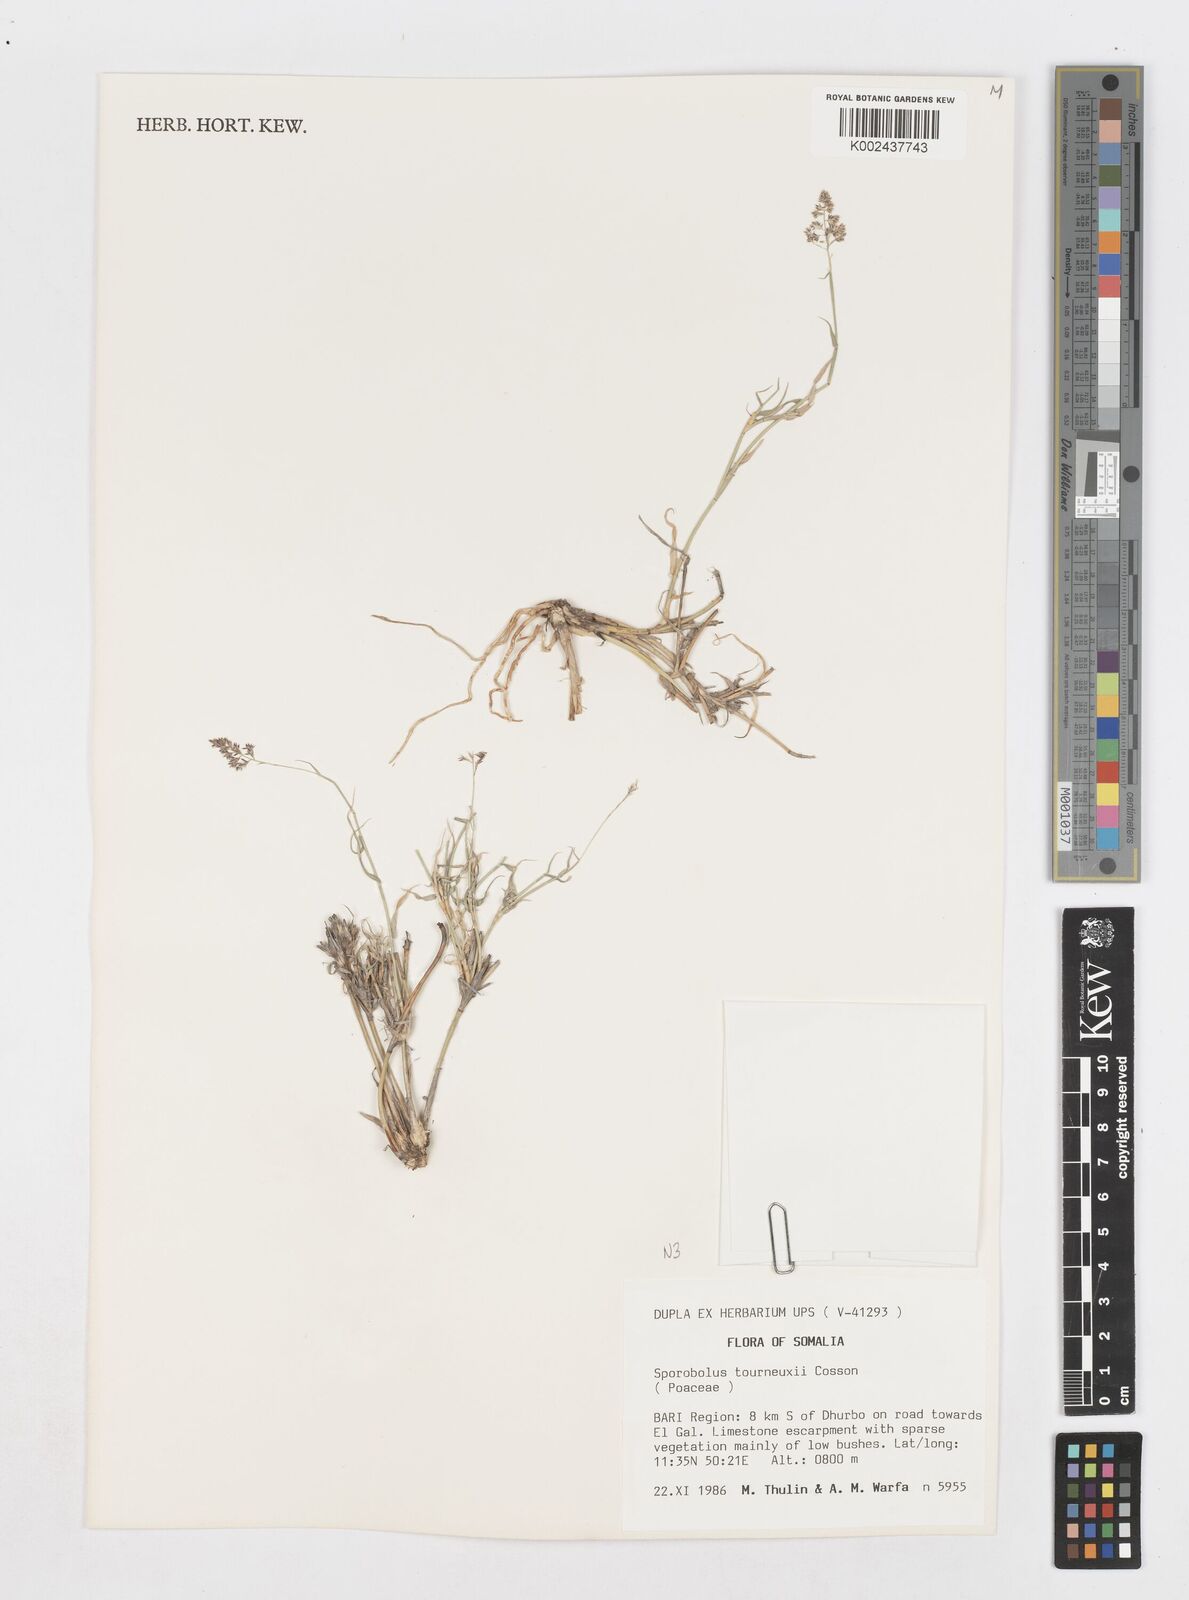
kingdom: Plantae
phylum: Tracheophyta
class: Liliopsida
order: Poales
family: Poaceae
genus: Sporobolus
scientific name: Sporobolus ruspolianus
